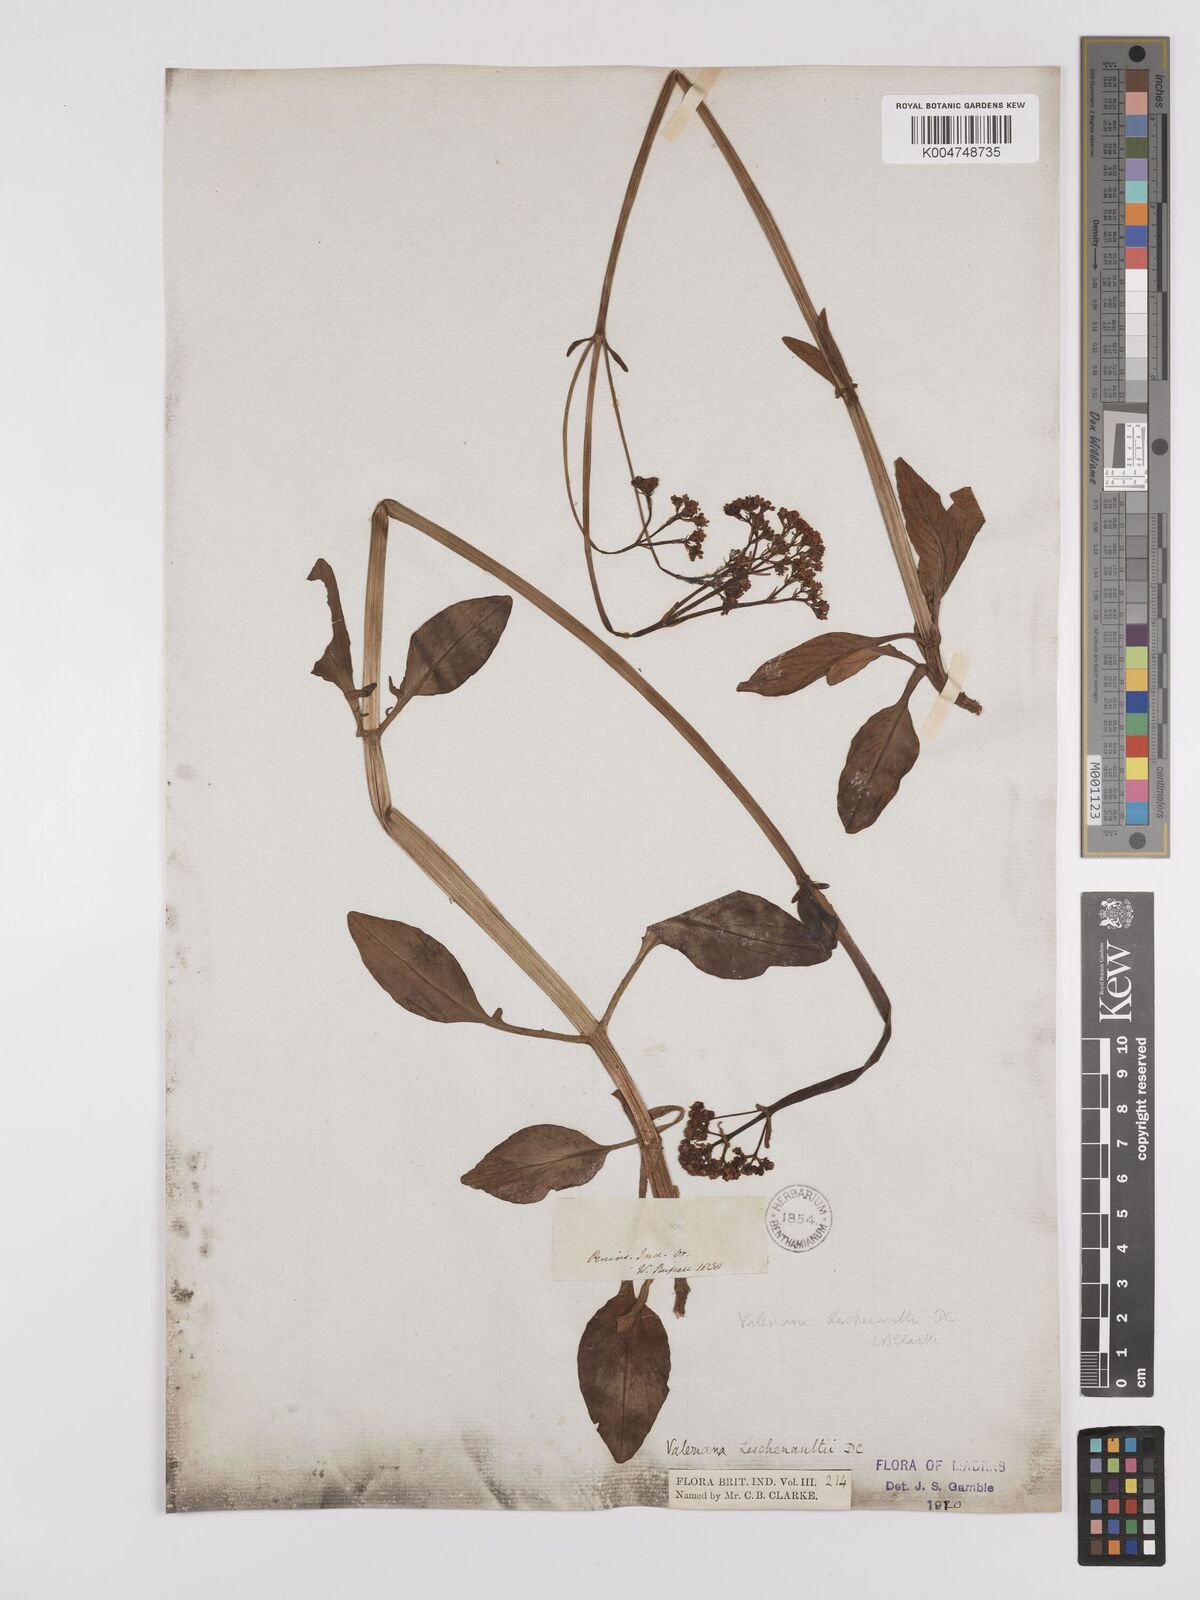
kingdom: Plantae
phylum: Tracheophyta
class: Magnoliopsida
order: Dipsacales
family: Caprifoliaceae
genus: Valeriana
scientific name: Valeriana leschenaultii
